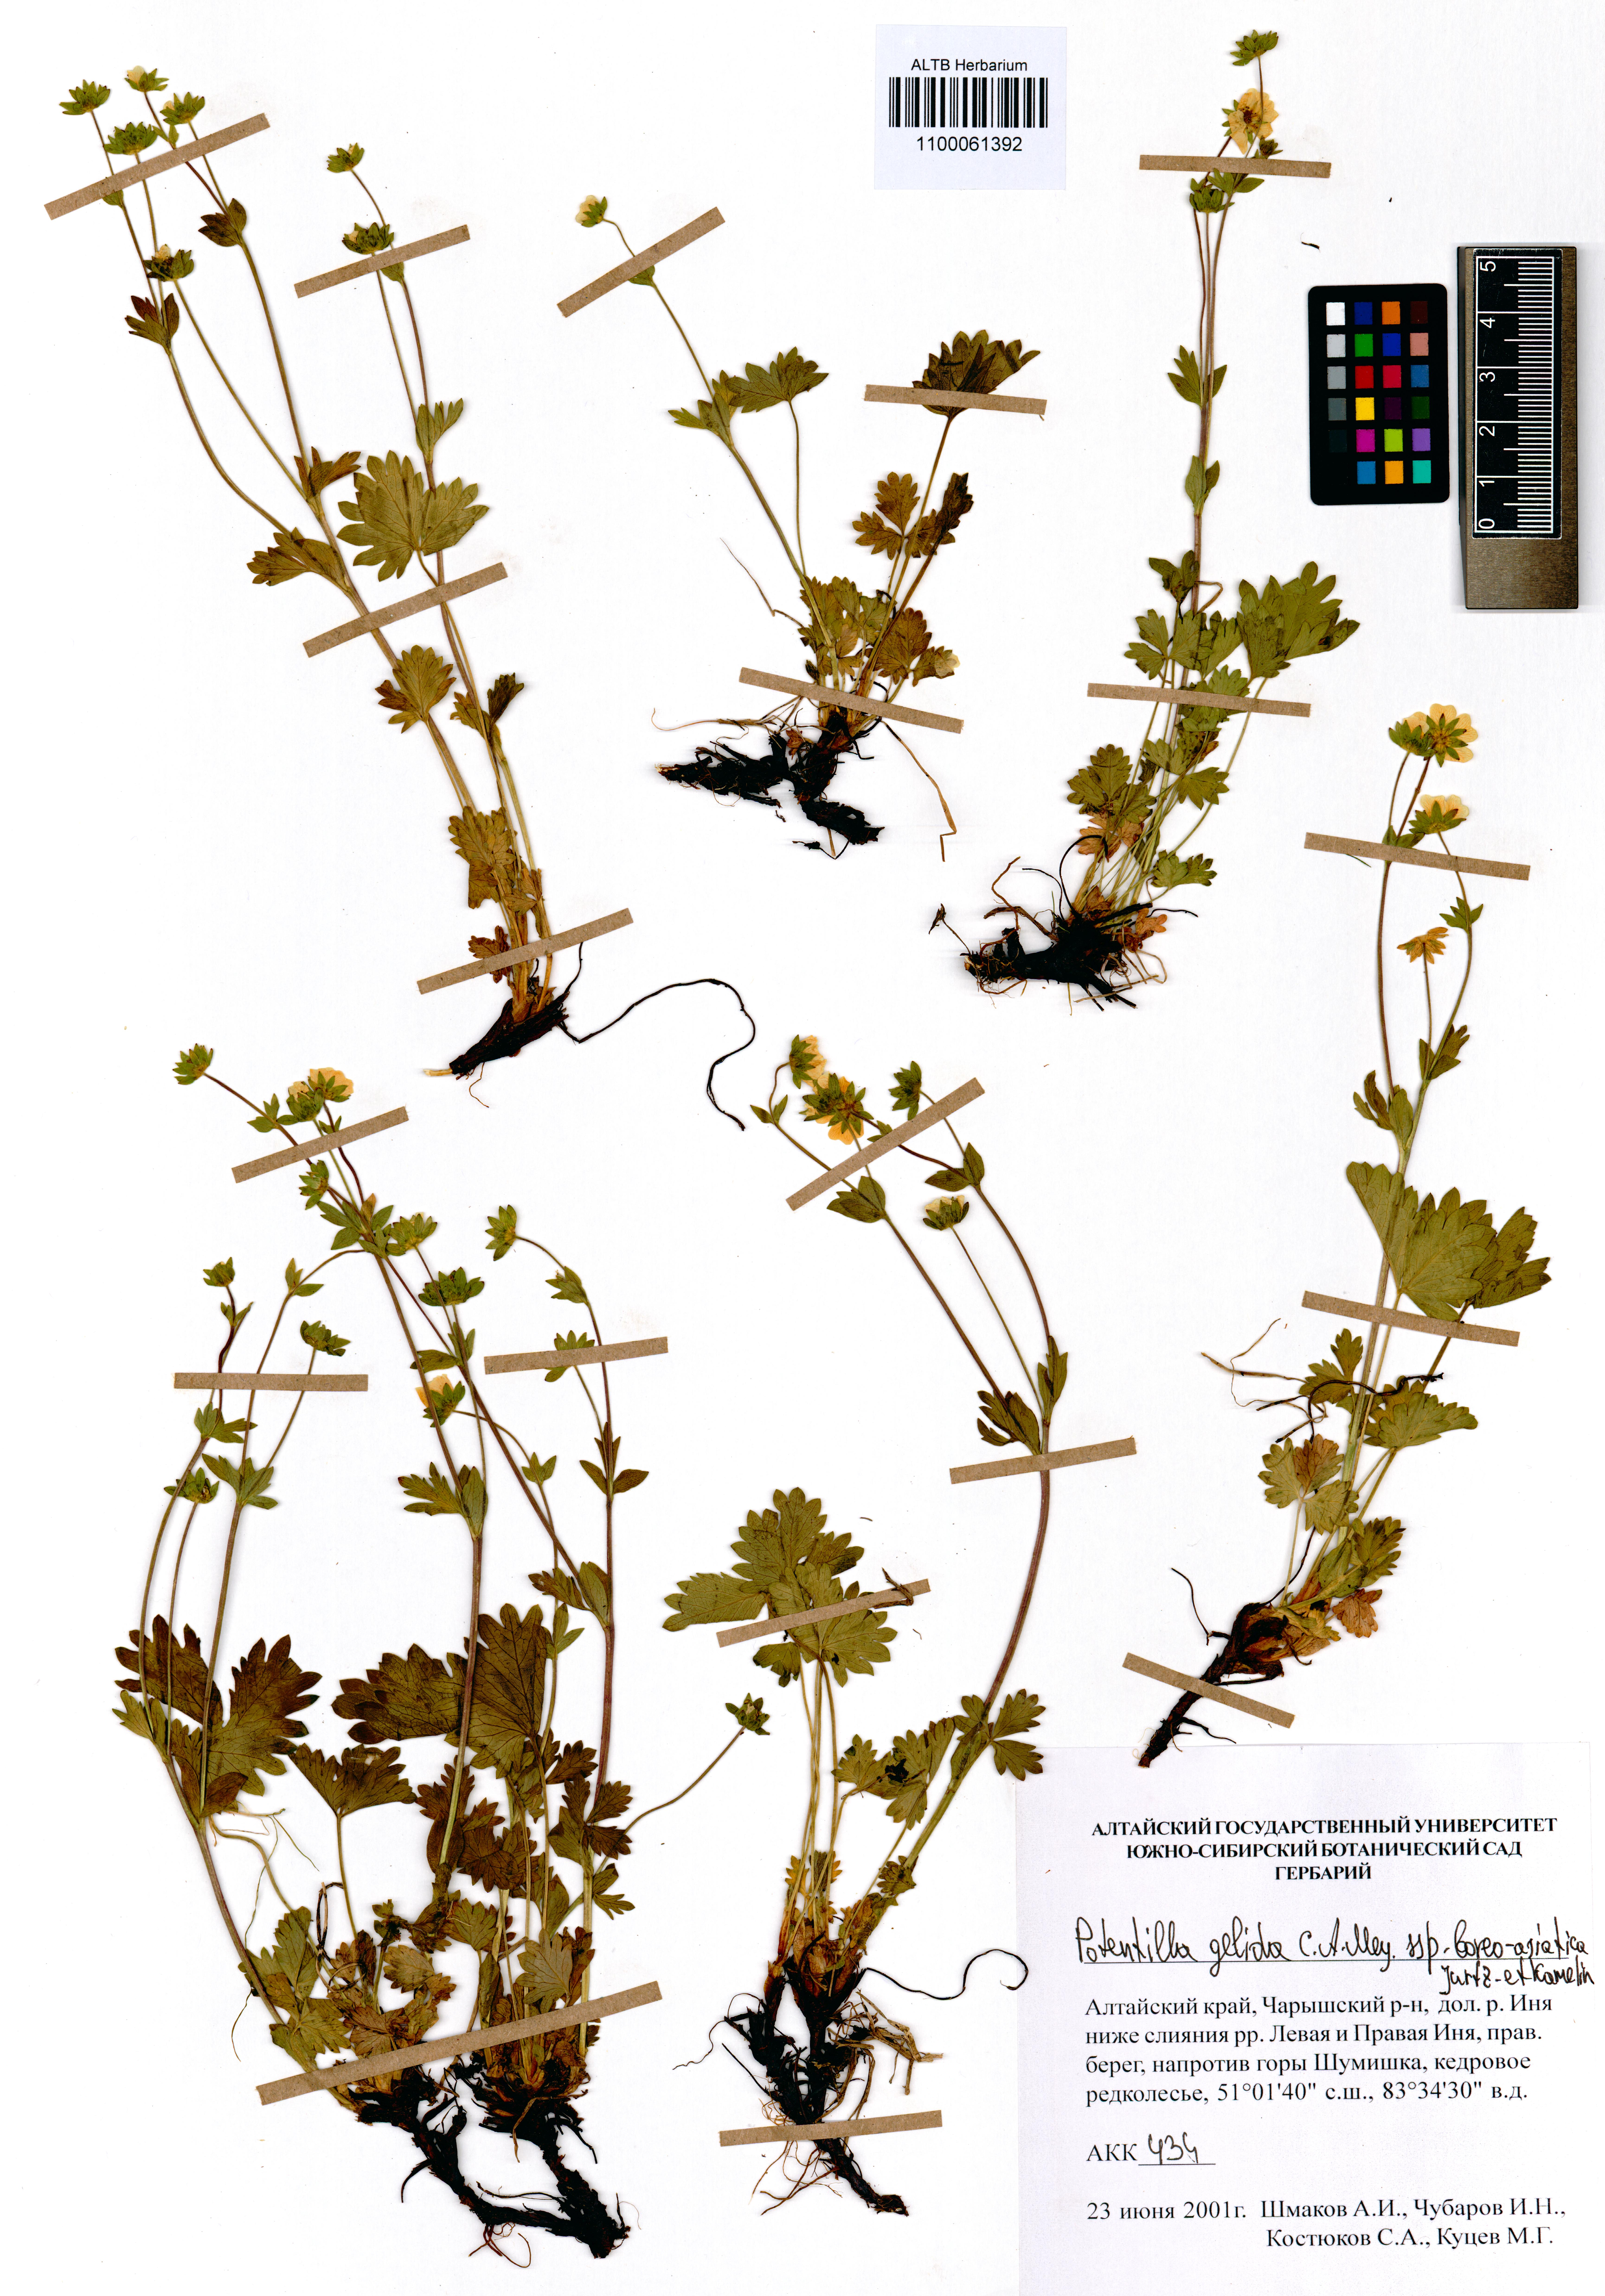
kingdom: Plantae
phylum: Tracheophyta
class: Magnoliopsida
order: Rosales
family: Rosaceae
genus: Potentilla
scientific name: Potentilla crantzii
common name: Alpine cinquefoil
